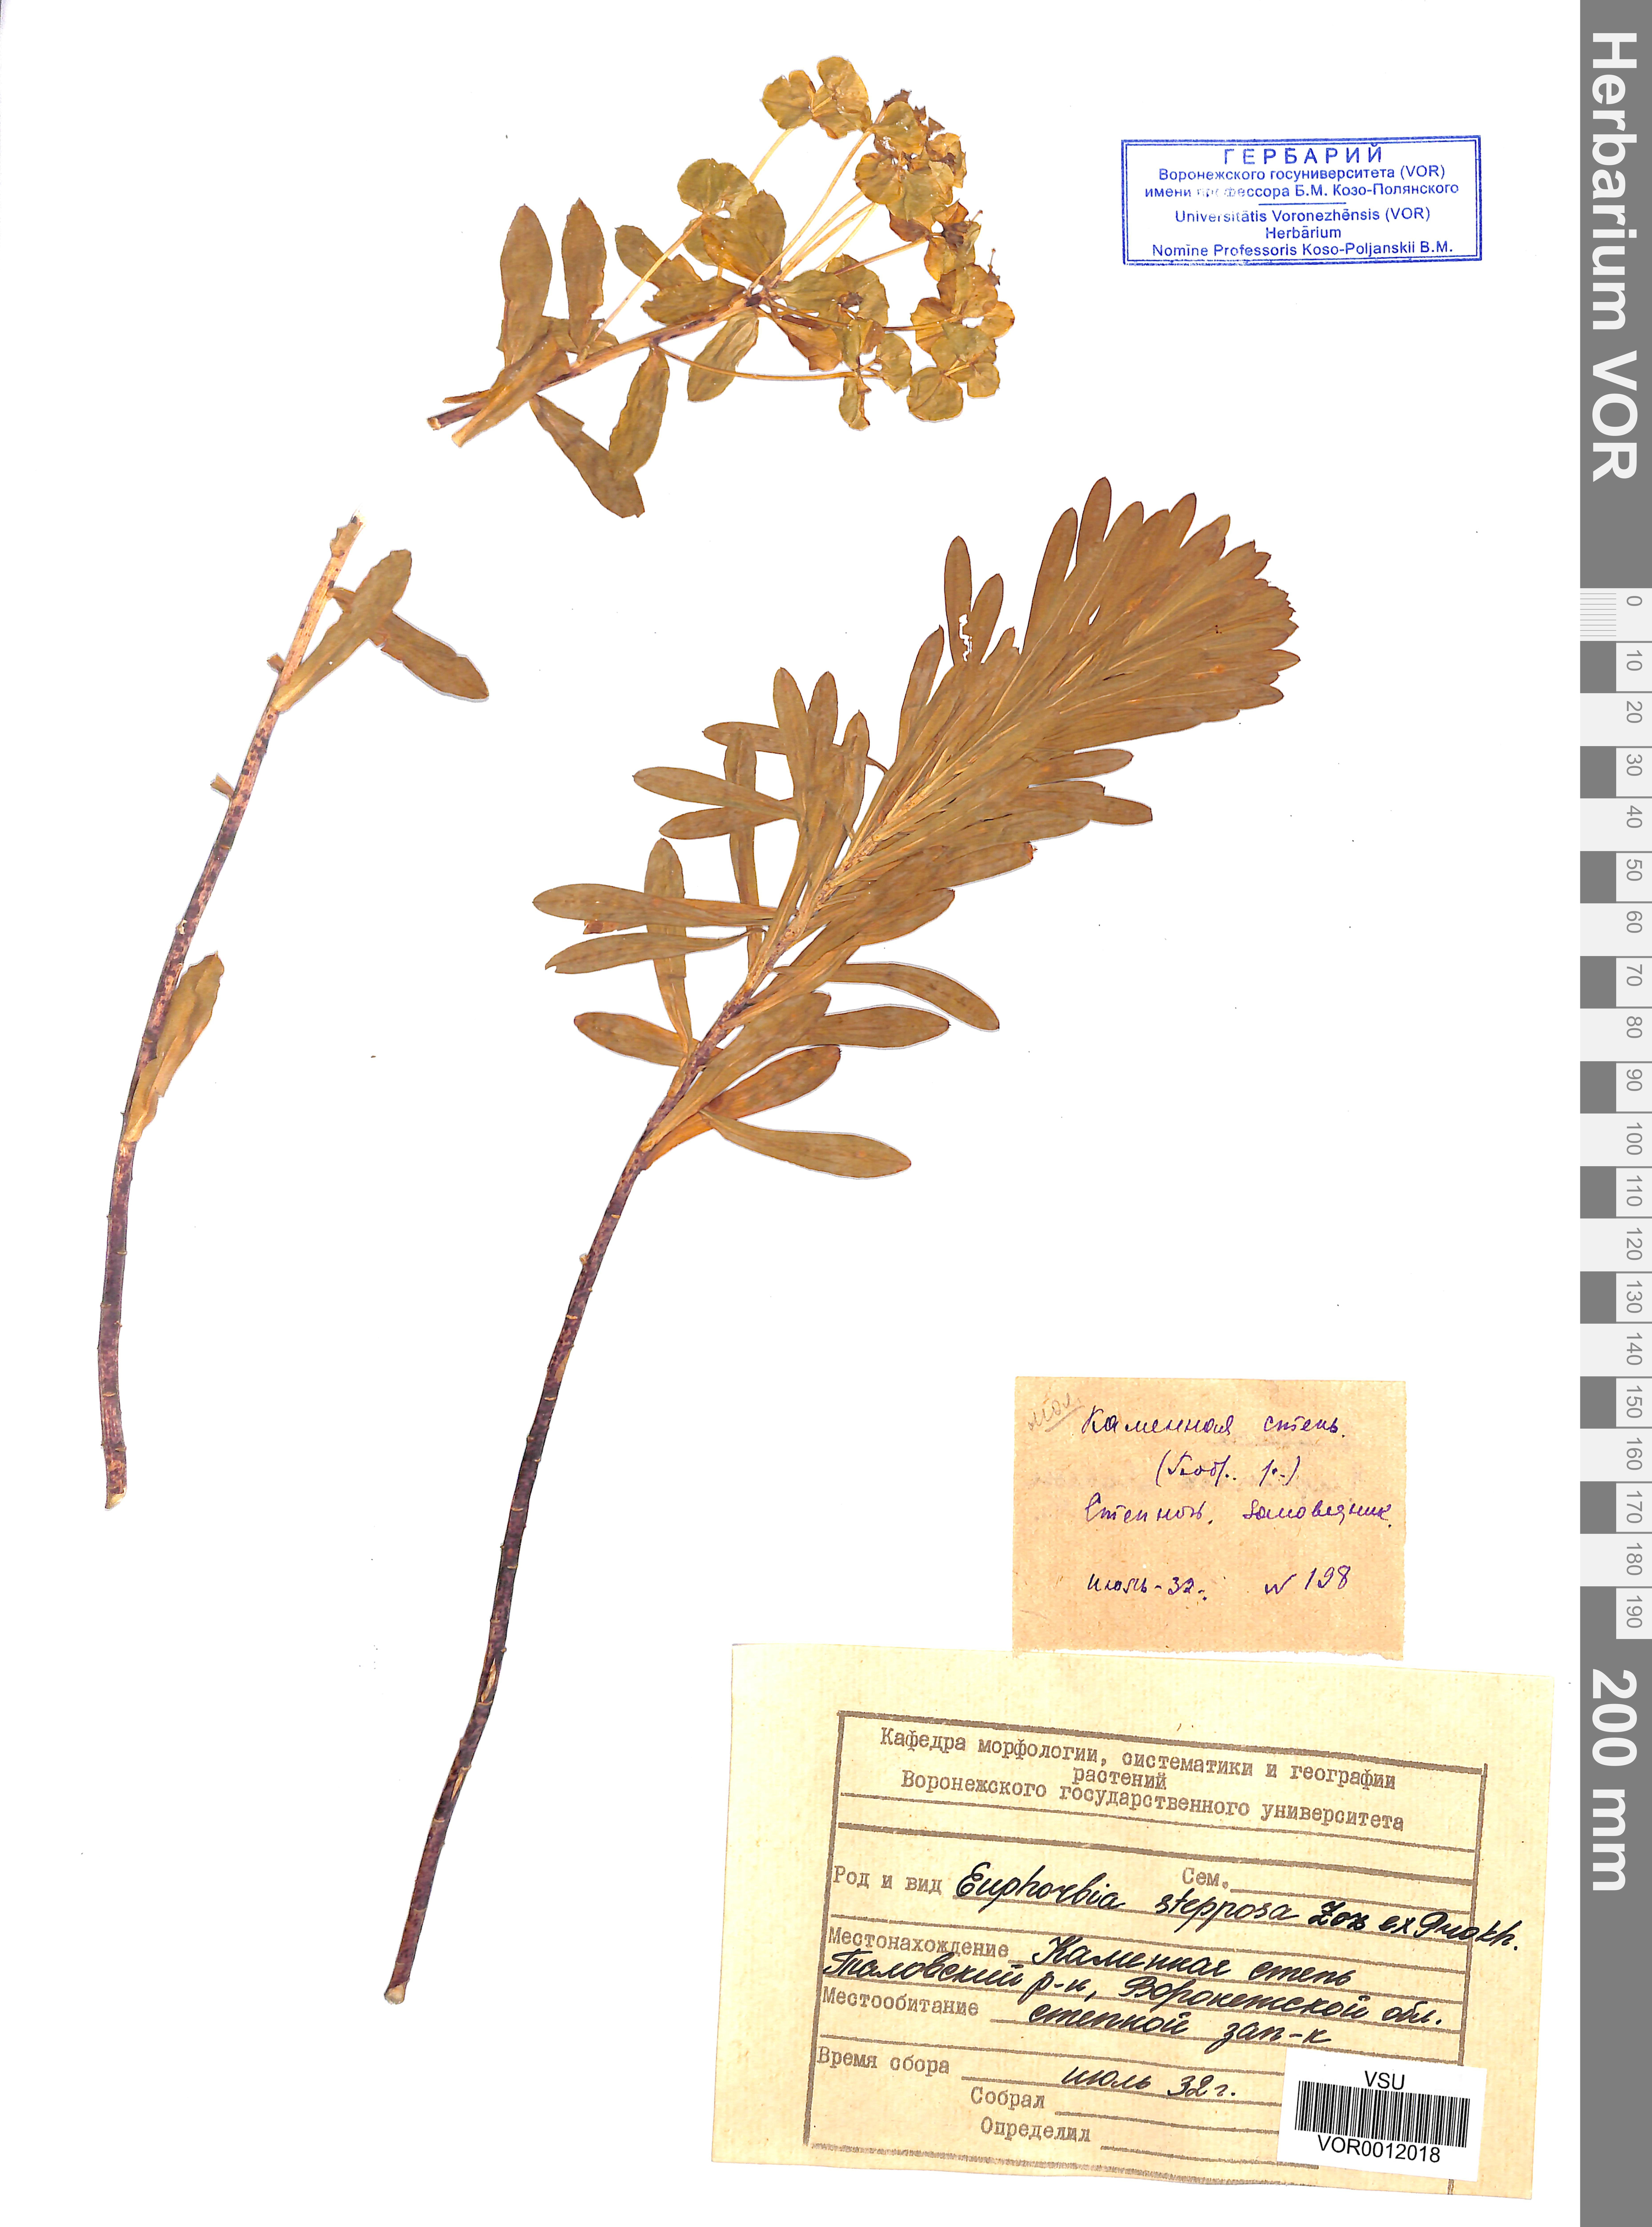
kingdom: Plantae
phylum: Tracheophyta
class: Magnoliopsida
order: Malpighiales
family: Euphorbiaceae
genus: Euphorbia
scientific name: Euphorbia stepposa
